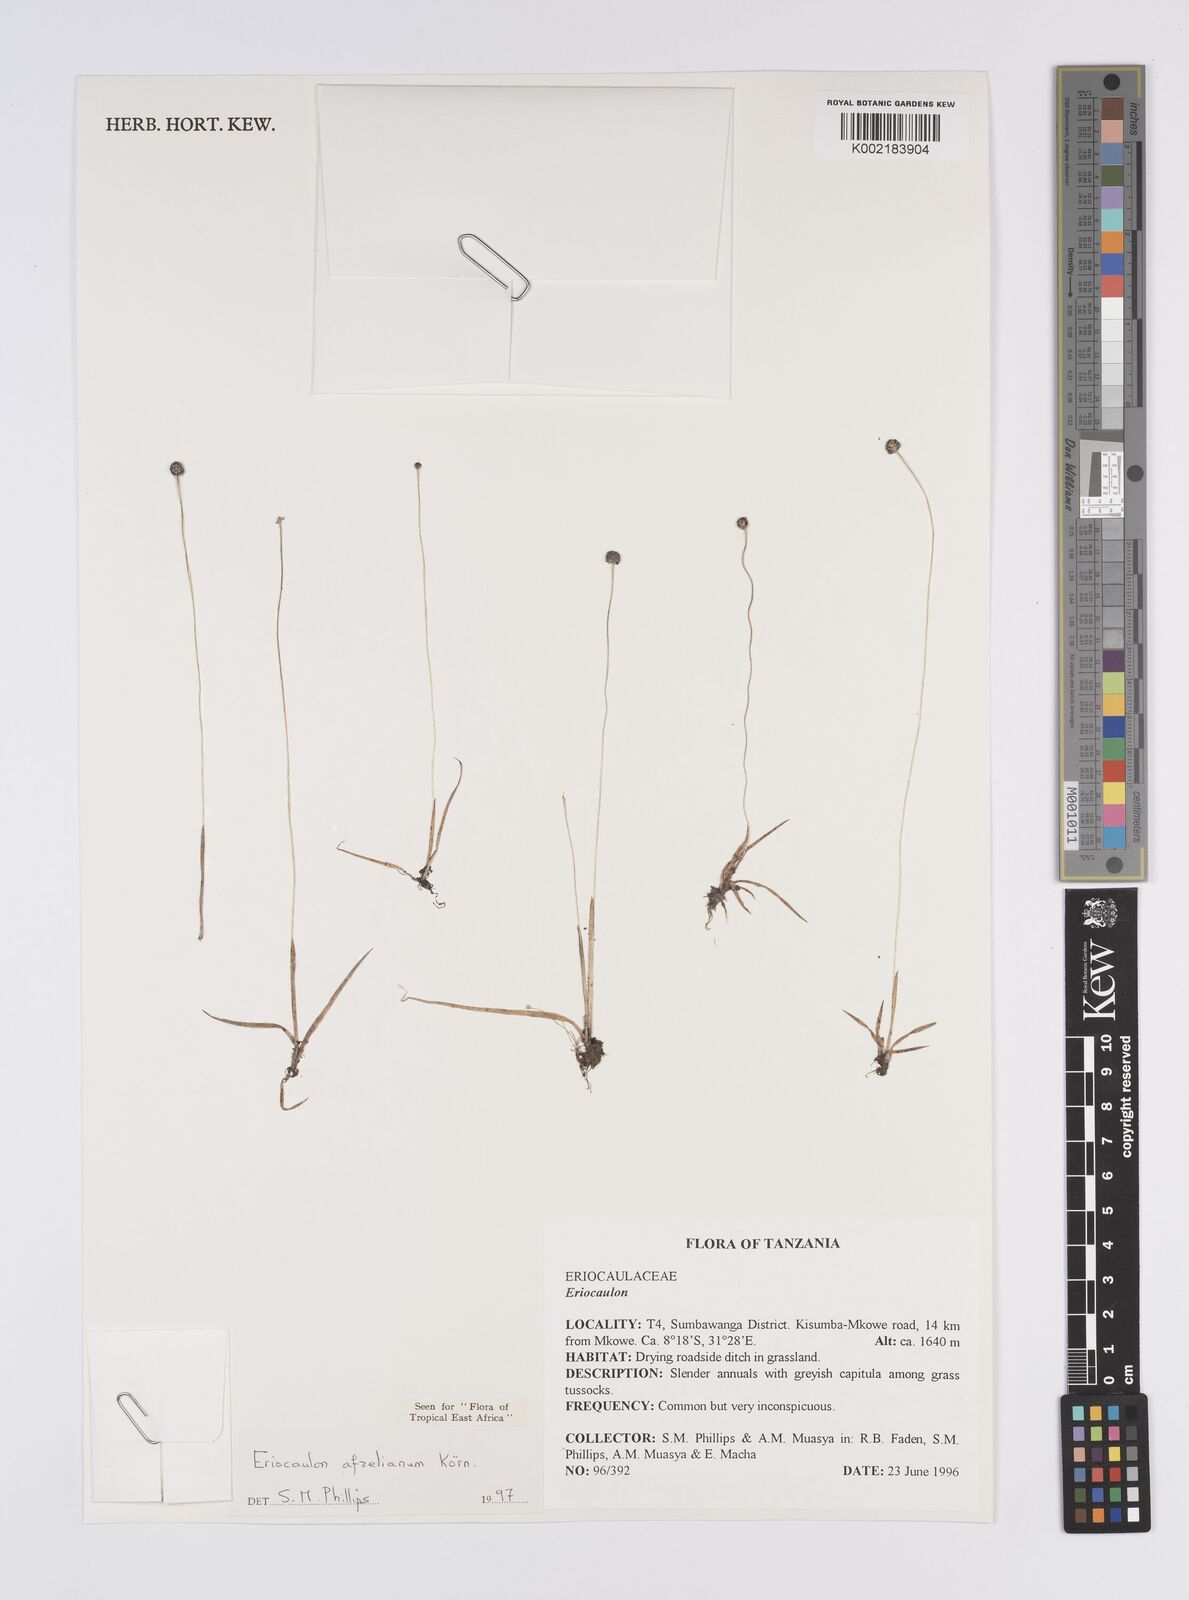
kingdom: Plantae
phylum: Tracheophyta
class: Liliopsida
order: Poales
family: Eriocaulaceae
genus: Eriocaulon
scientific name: Eriocaulon afzelianum
